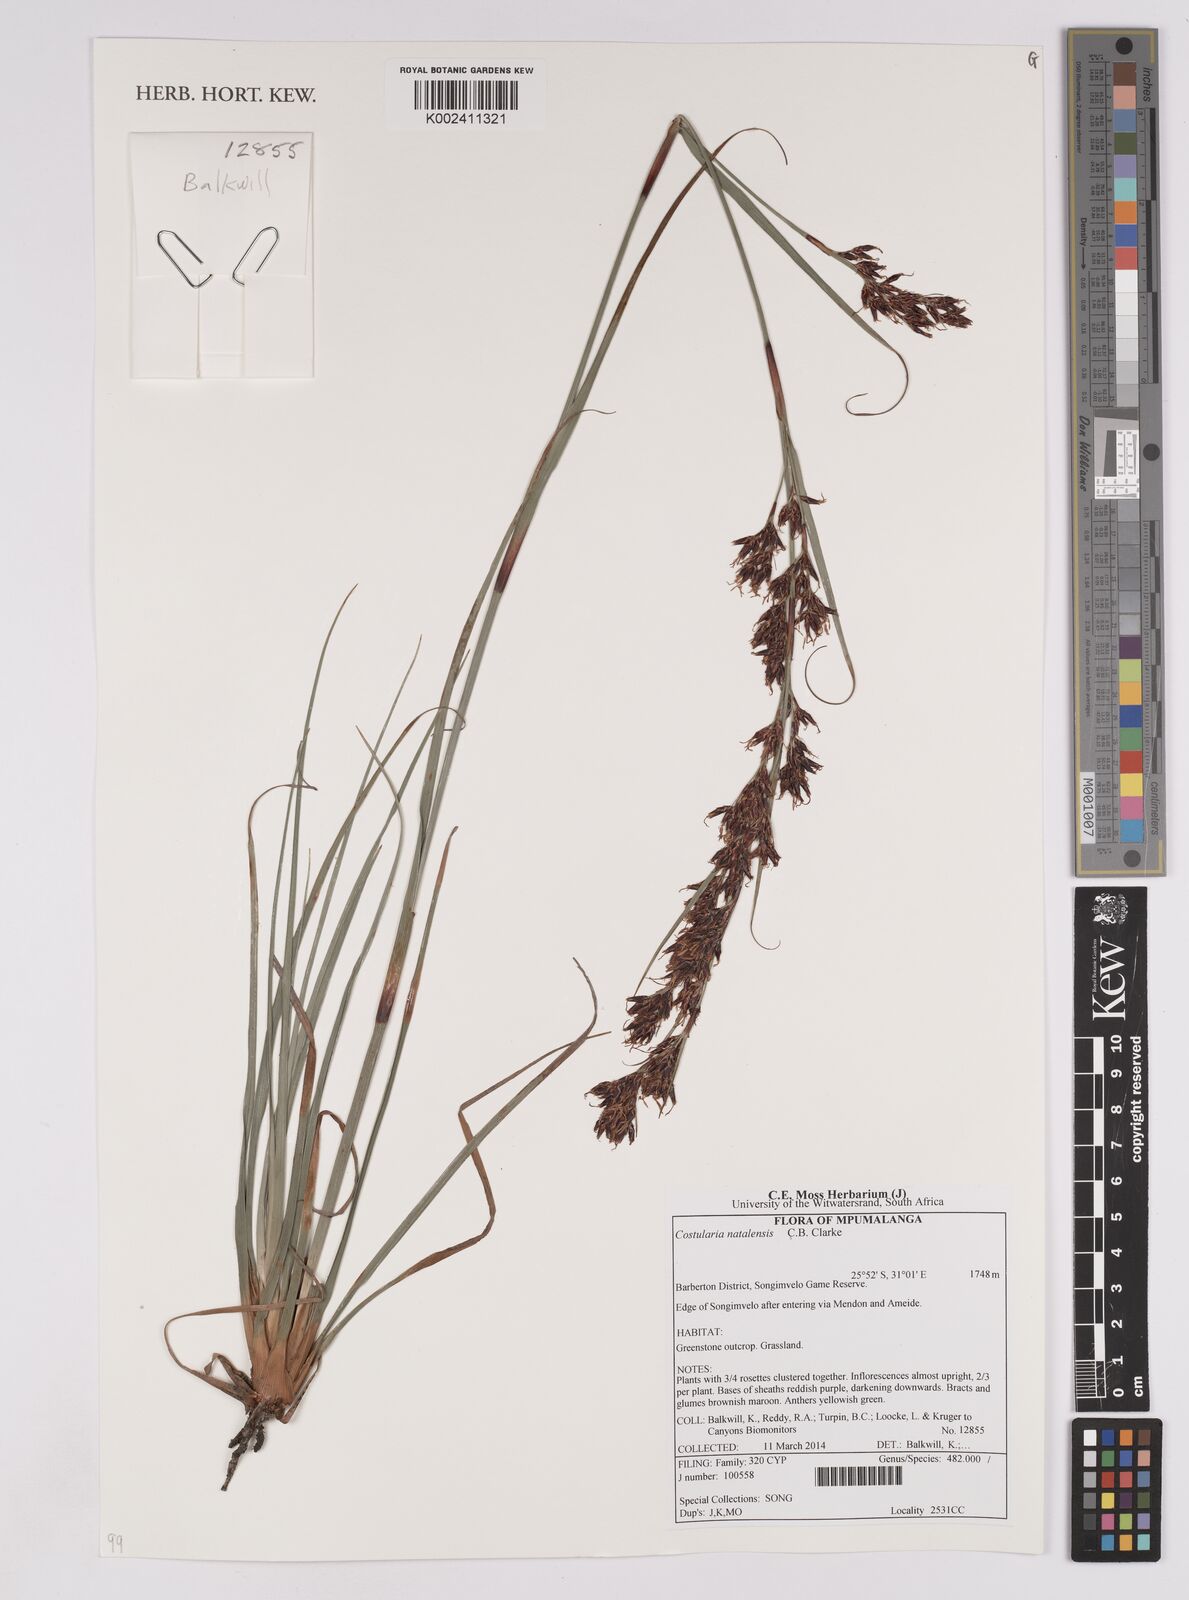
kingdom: Plantae
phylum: Tracheophyta
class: Liliopsida
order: Poales
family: Cyperaceae
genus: Costularia
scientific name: Costularia natalensis
